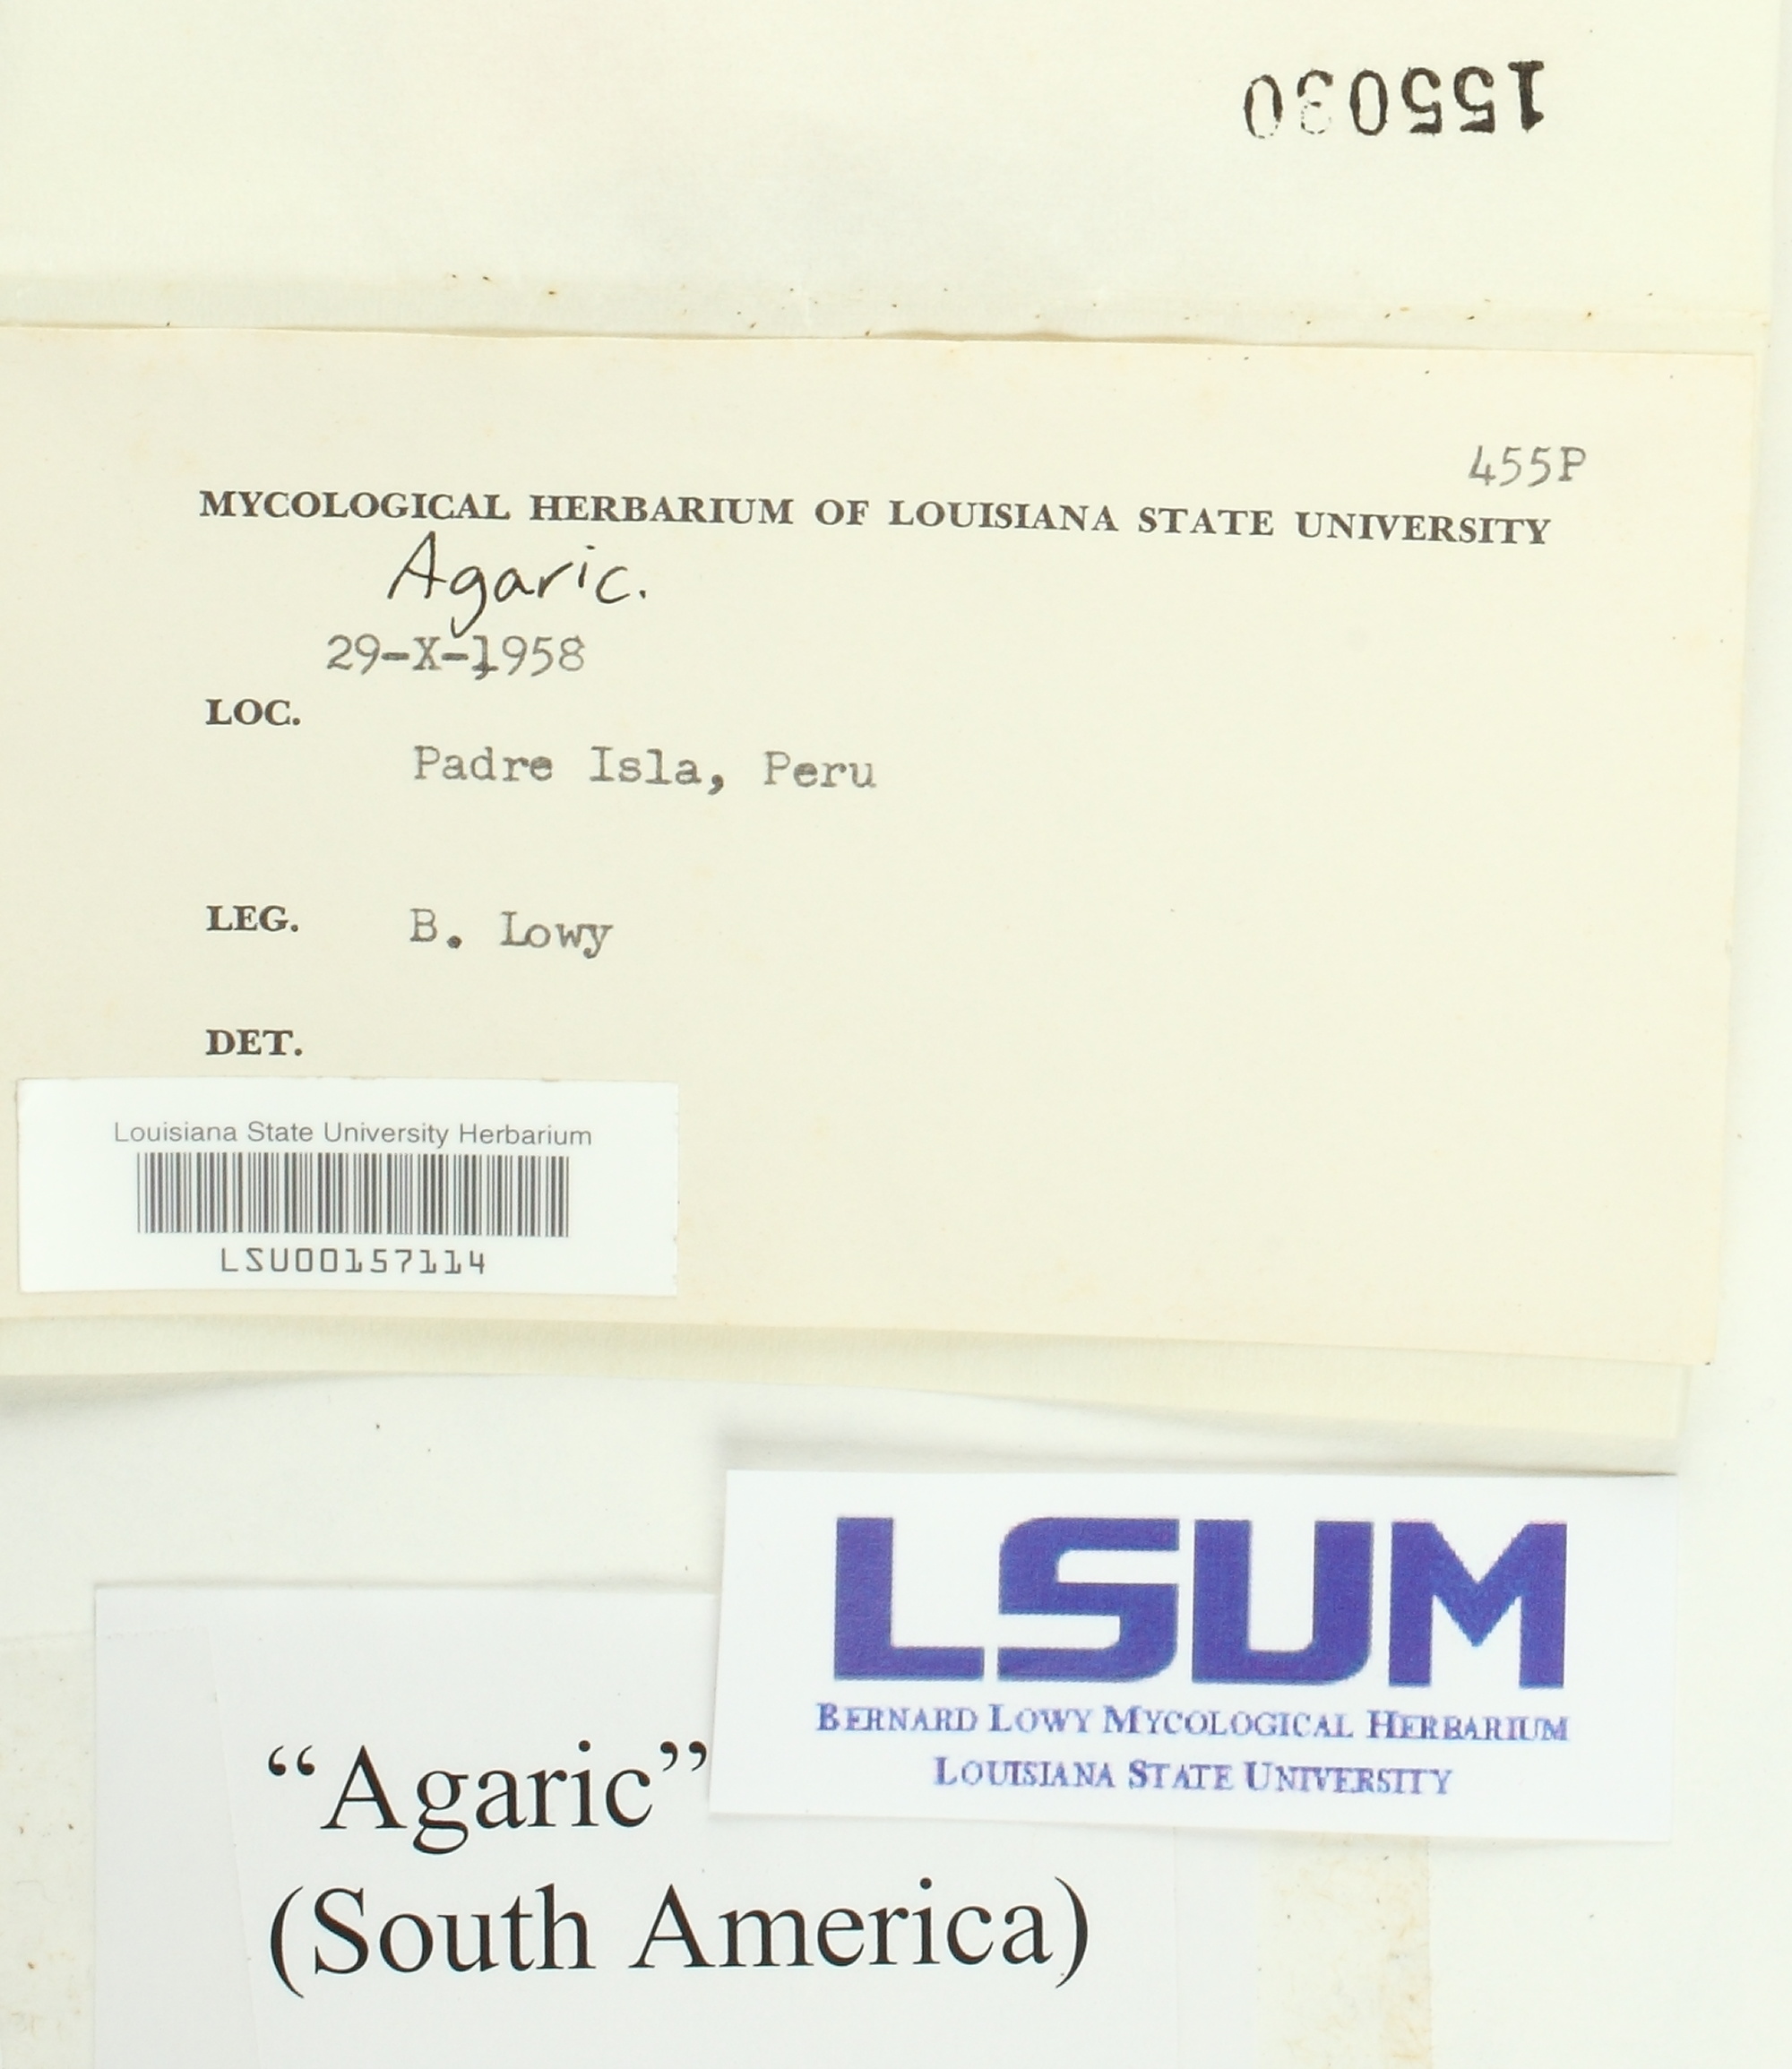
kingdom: Fungi
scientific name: Fungi
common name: Fungi
